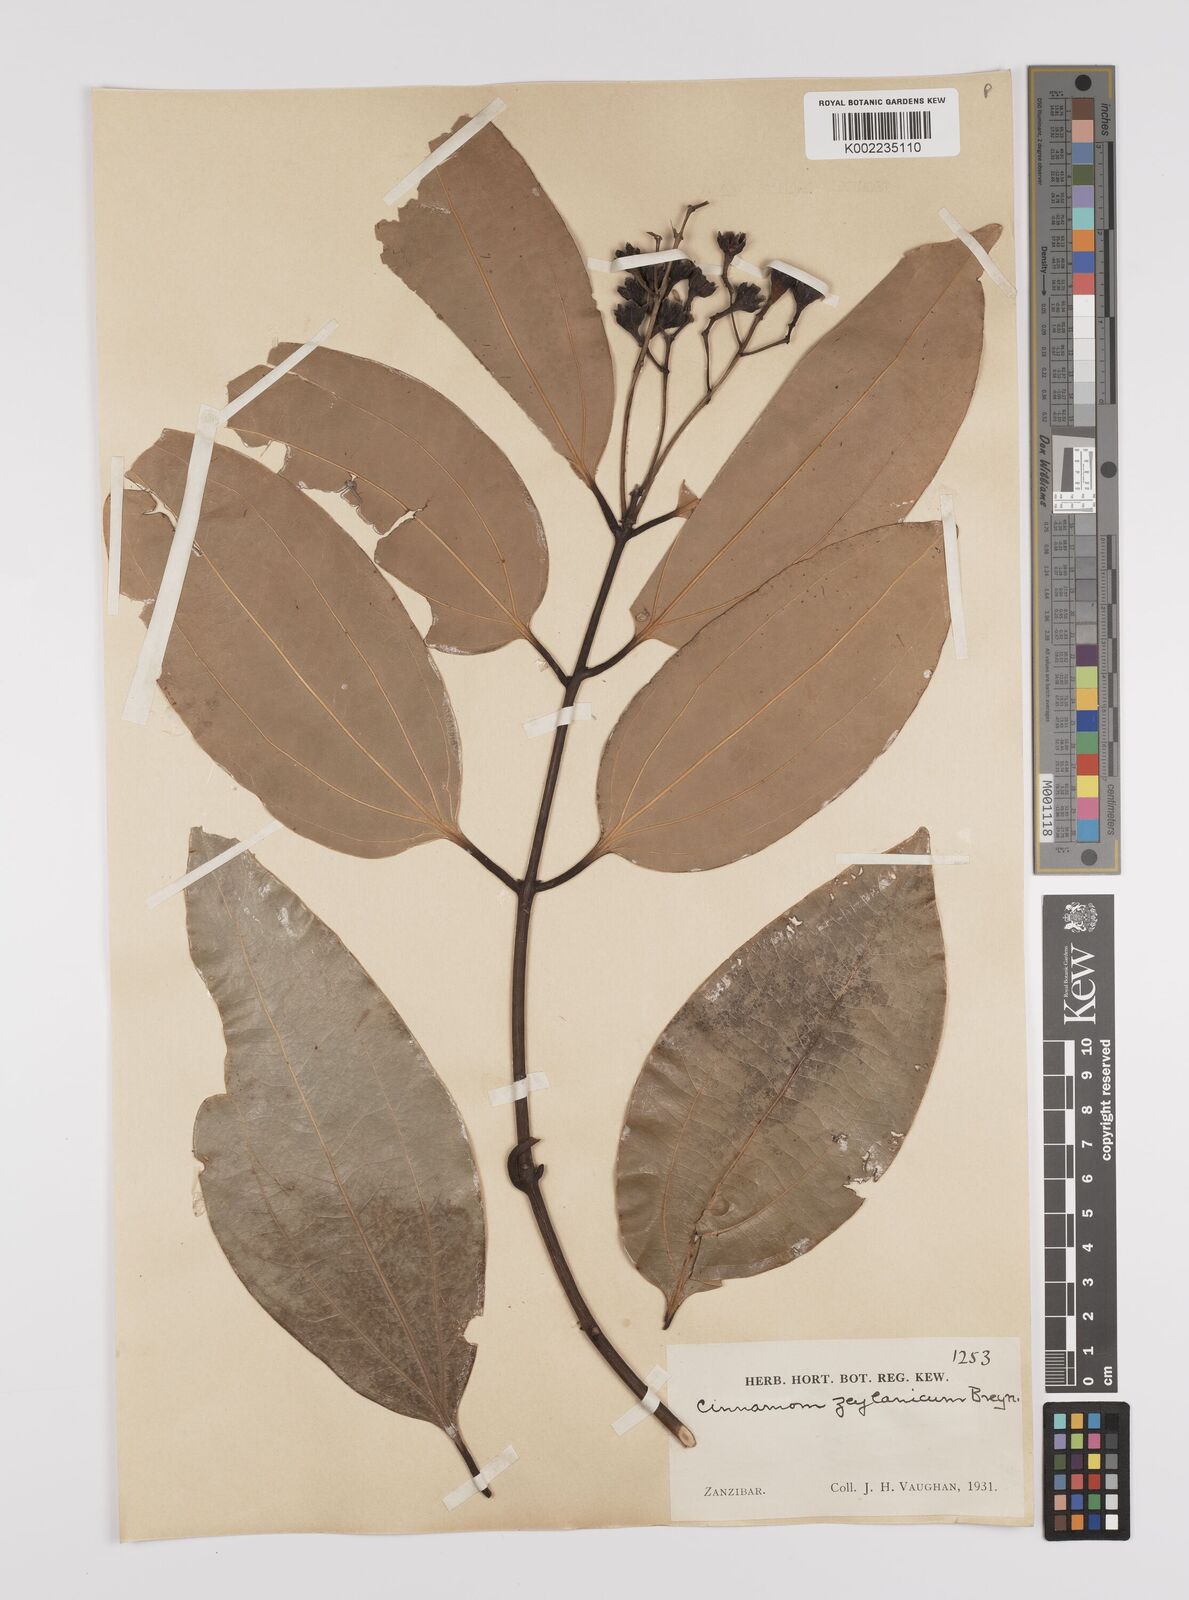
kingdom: Plantae
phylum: Tracheophyta
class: Magnoliopsida
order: Laurales
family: Lauraceae
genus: Cinnamomum
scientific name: Cinnamomum verum
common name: Cinnamon
